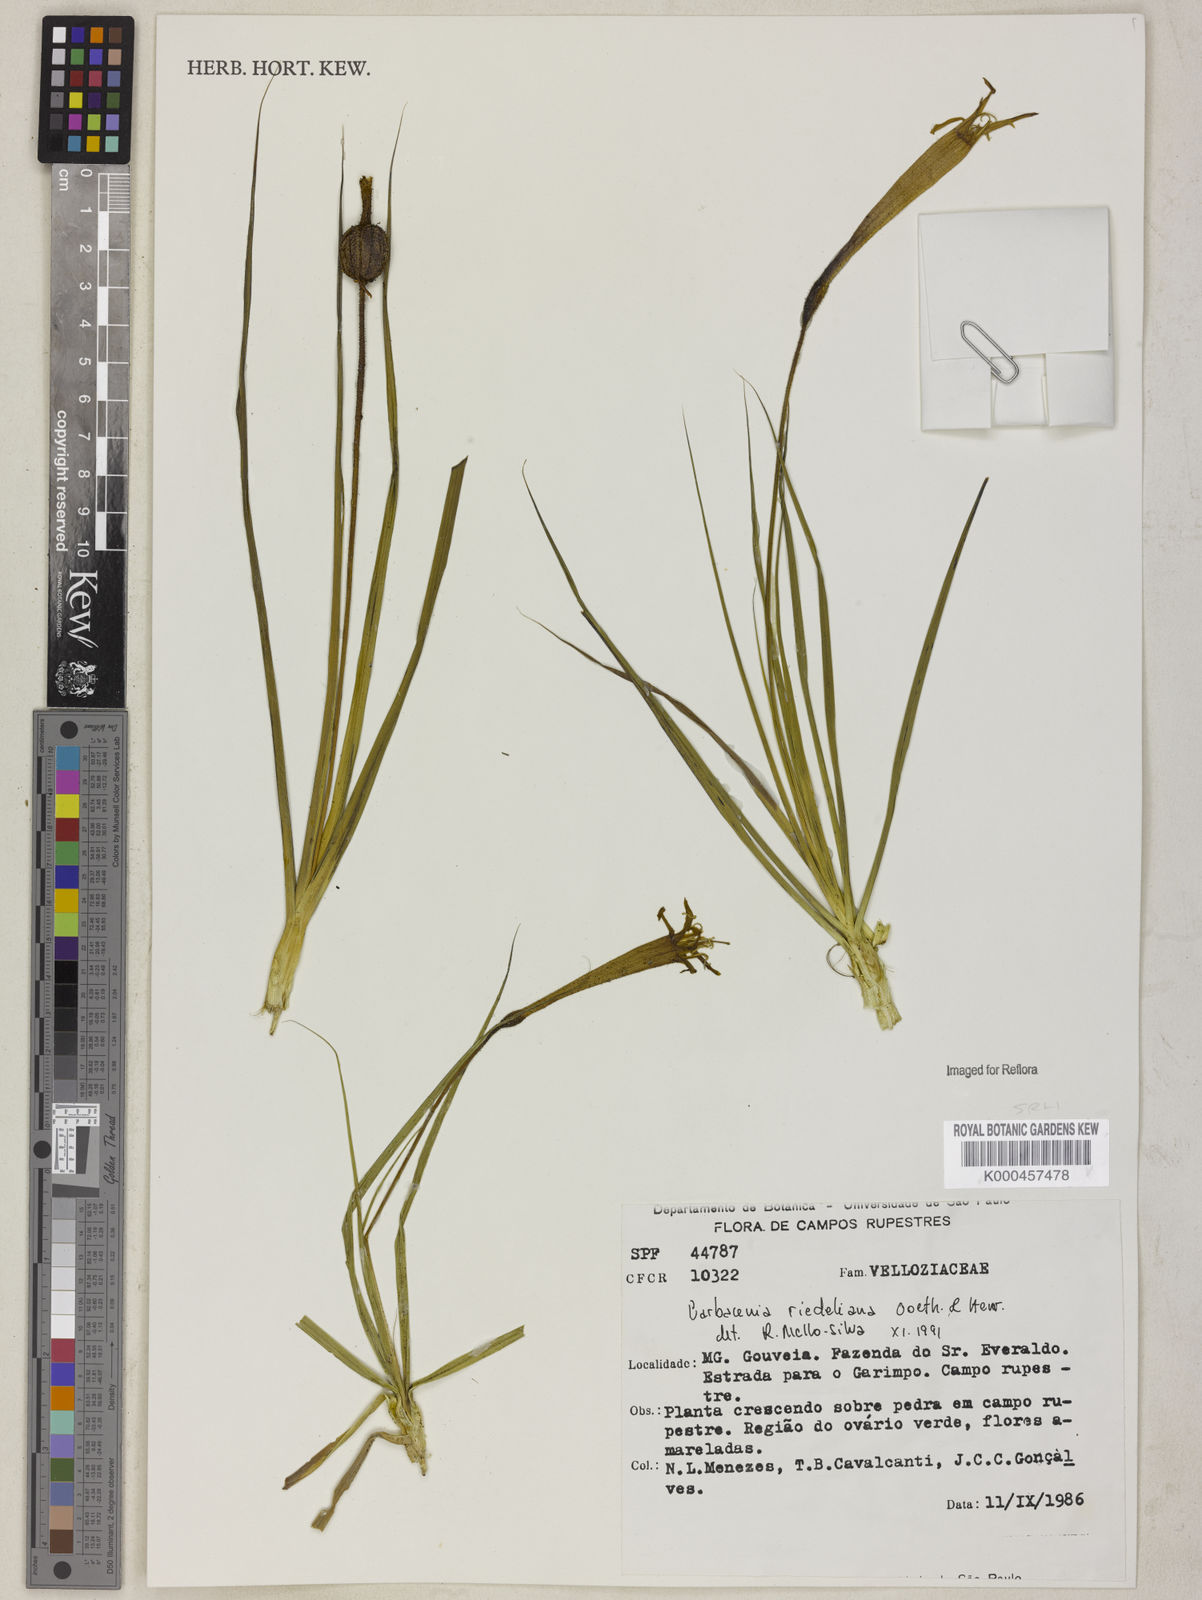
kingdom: Plantae
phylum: Tracheophyta
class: Liliopsida
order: Pandanales
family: Velloziaceae
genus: Barbacenia
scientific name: Barbacenia riedeliana
